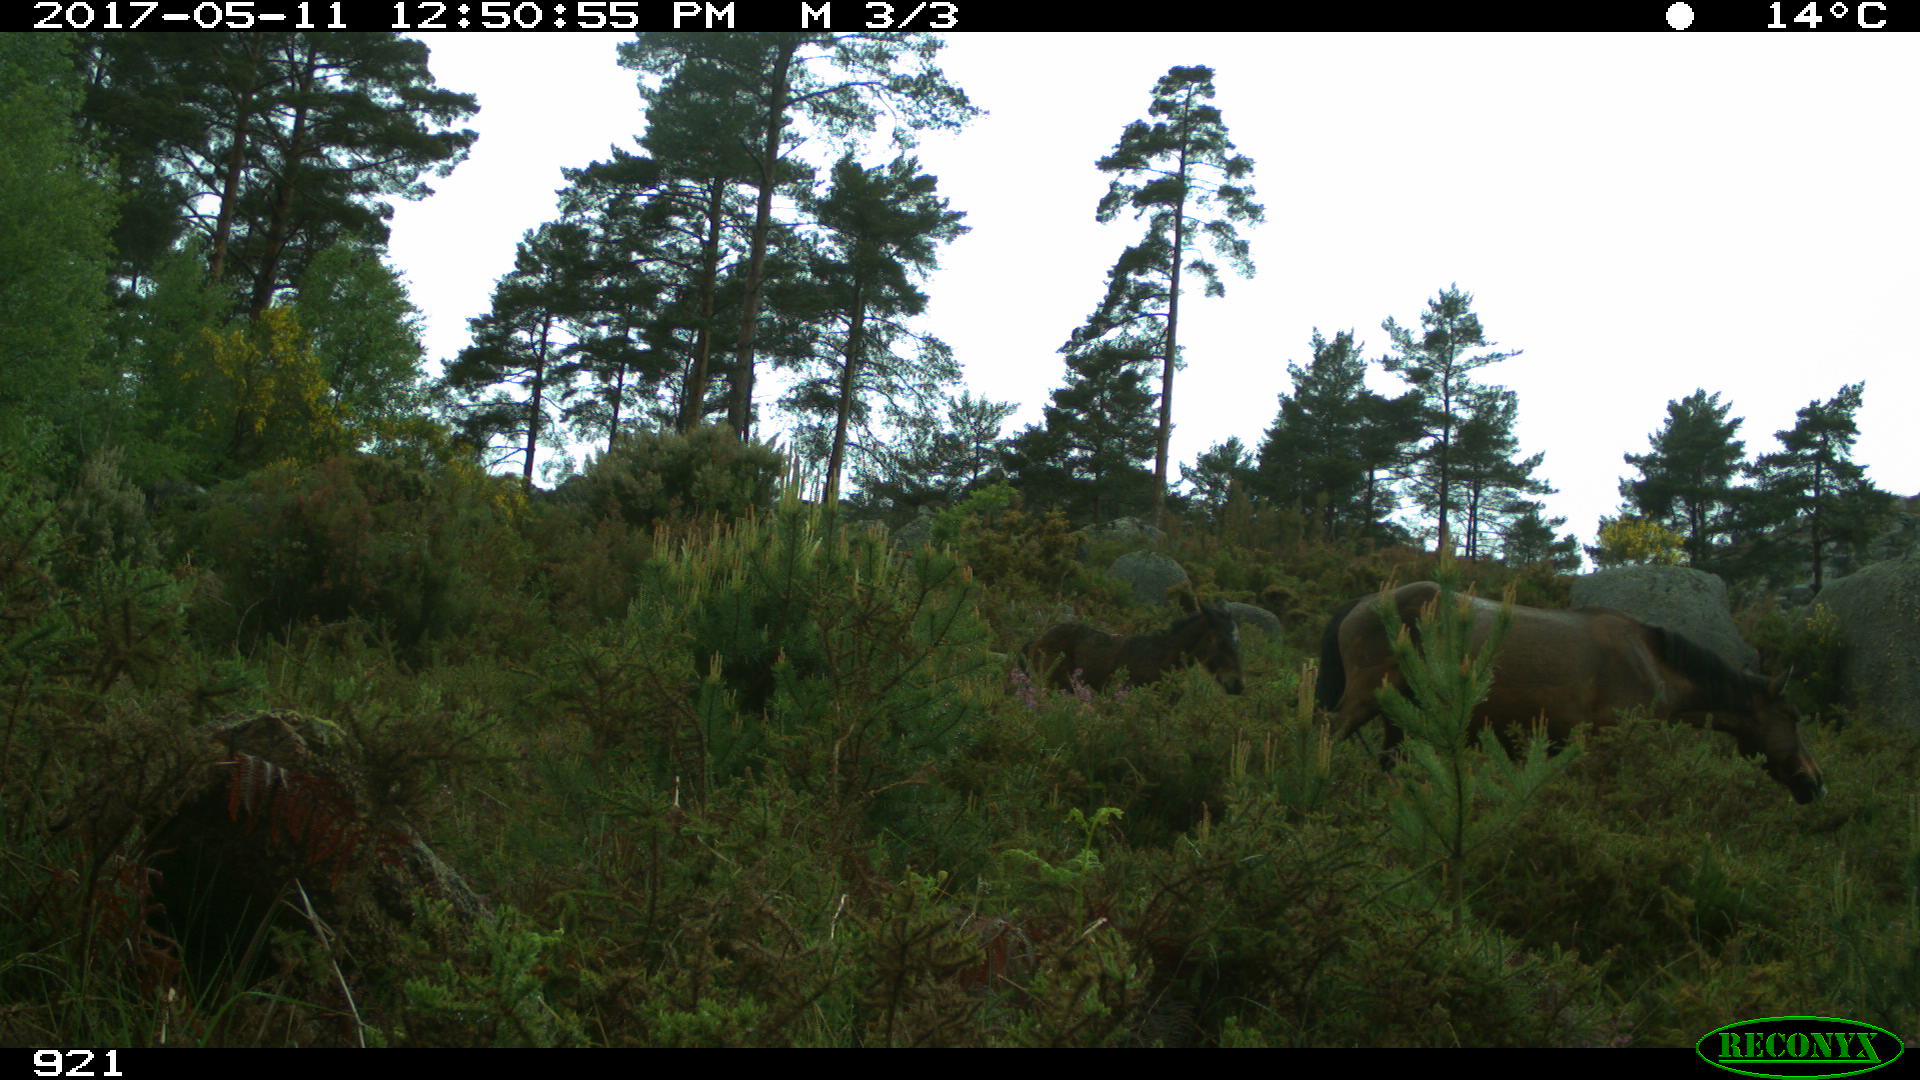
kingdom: Animalia
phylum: Chordata
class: Mammalia
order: Perissodactyla
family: Equidae
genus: Equus
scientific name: Equus caballus
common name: Horse
